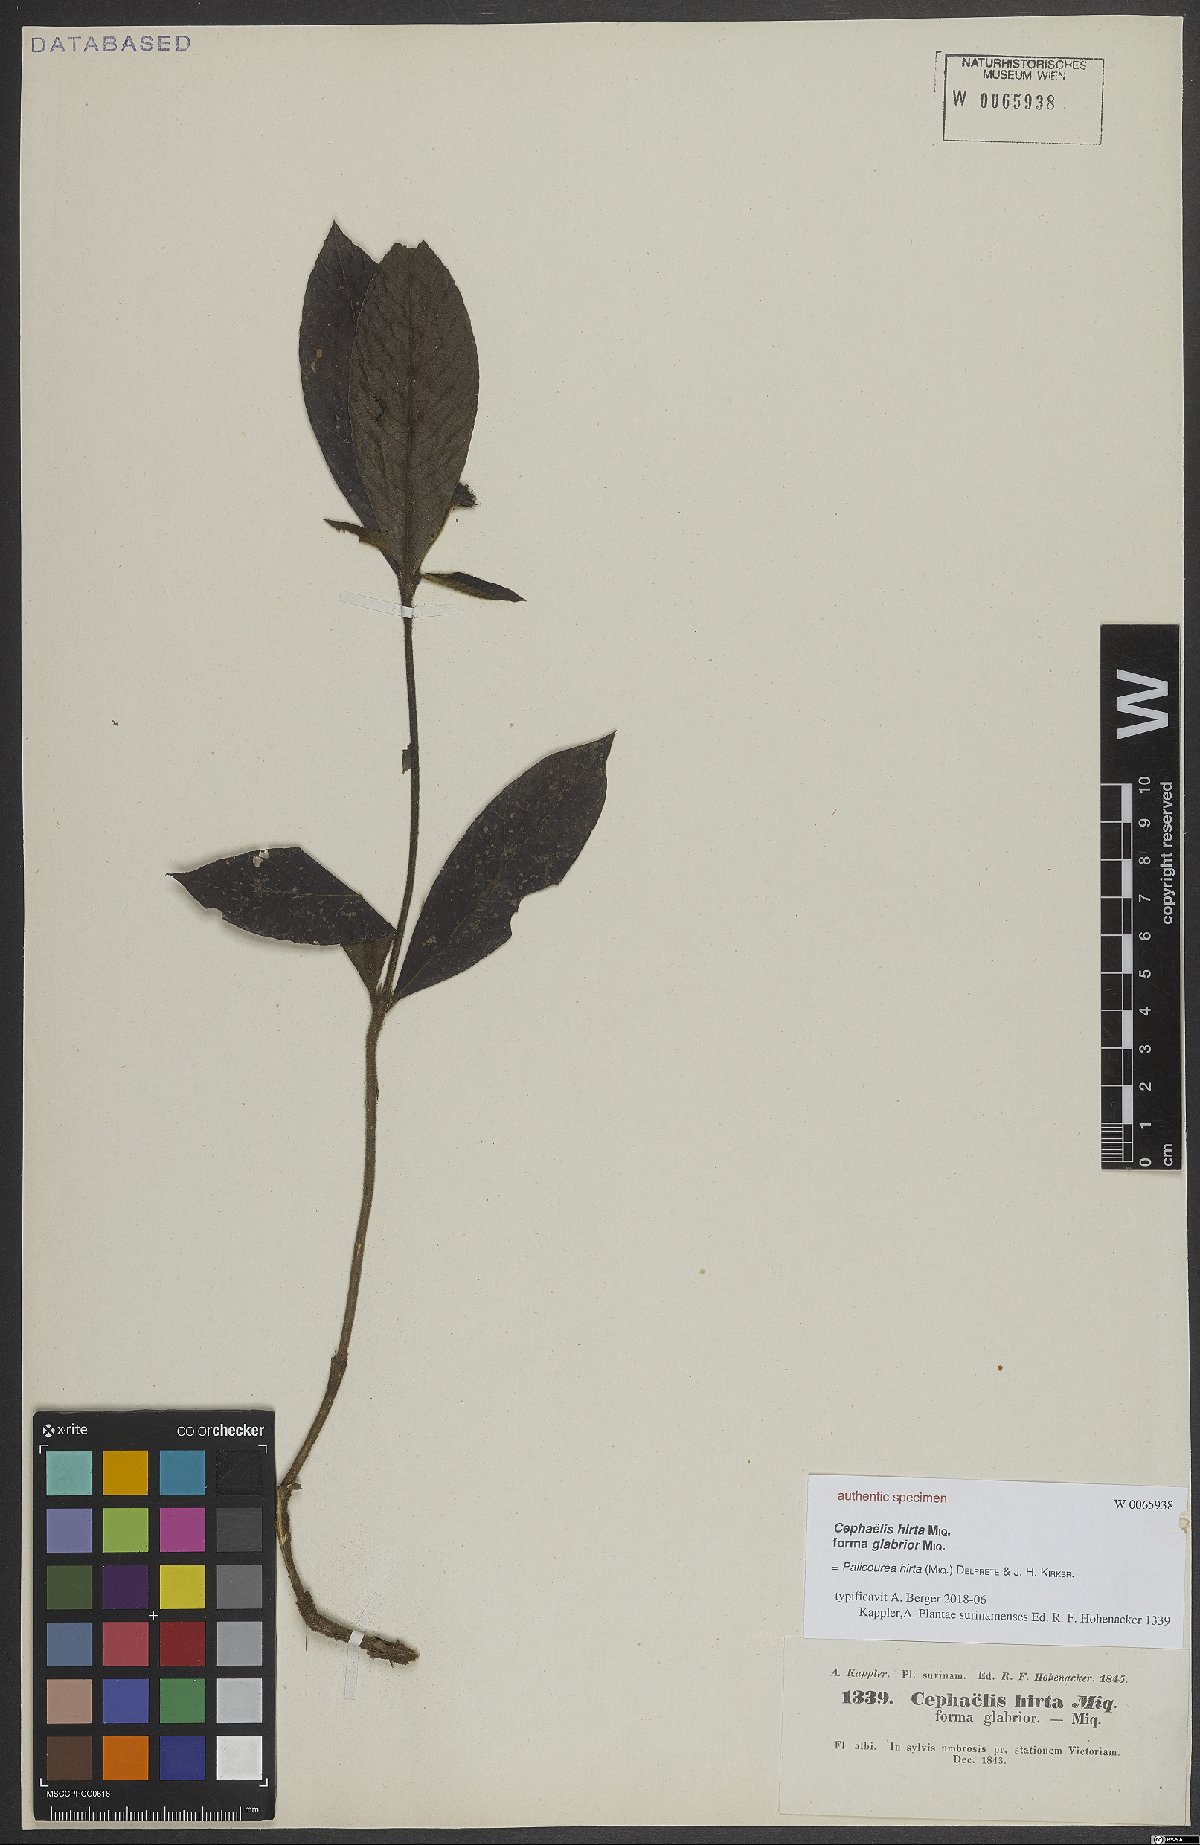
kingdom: Plantae
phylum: Tracheophyta
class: Magnoliopsida
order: Gentianales
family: Rubiaceae
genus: Palicourea
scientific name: Palicourea hirta
